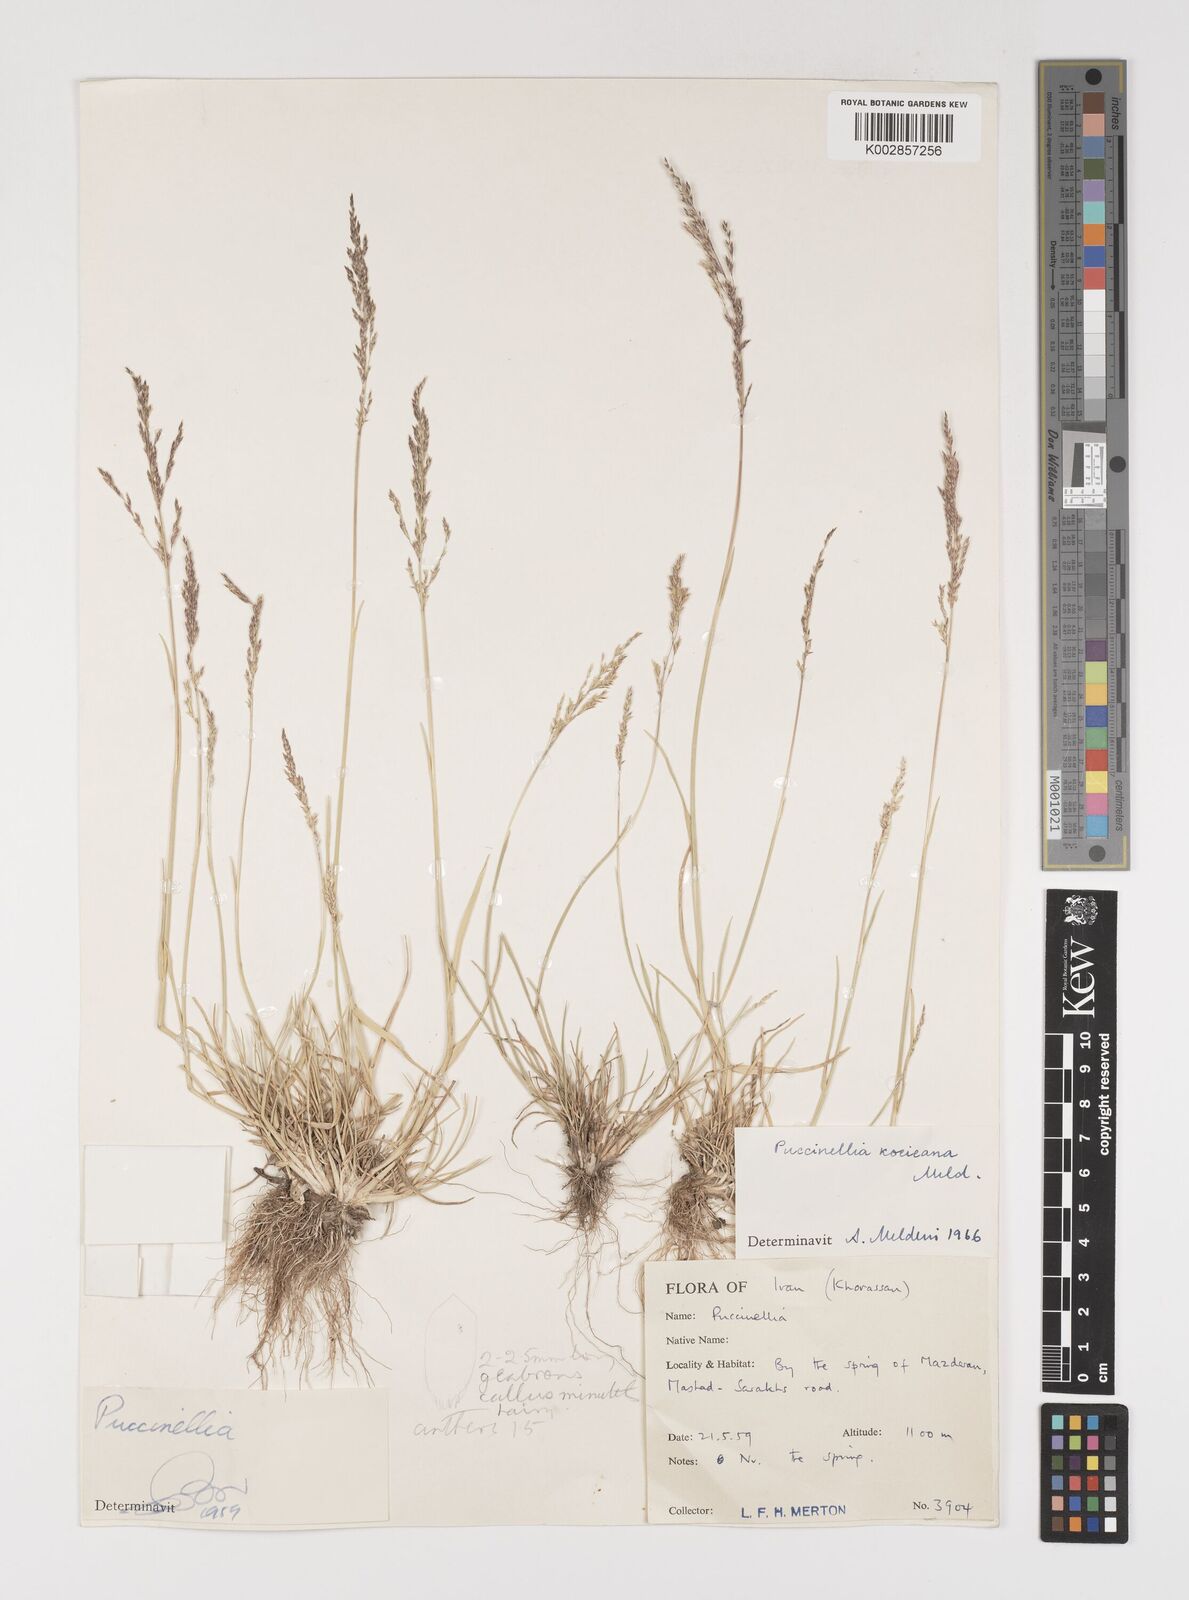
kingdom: Plantae
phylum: Tracheophyta
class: Liliopsida
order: Poales
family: Poaceae
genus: Puccinellia
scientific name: Puccinellia koeieana
